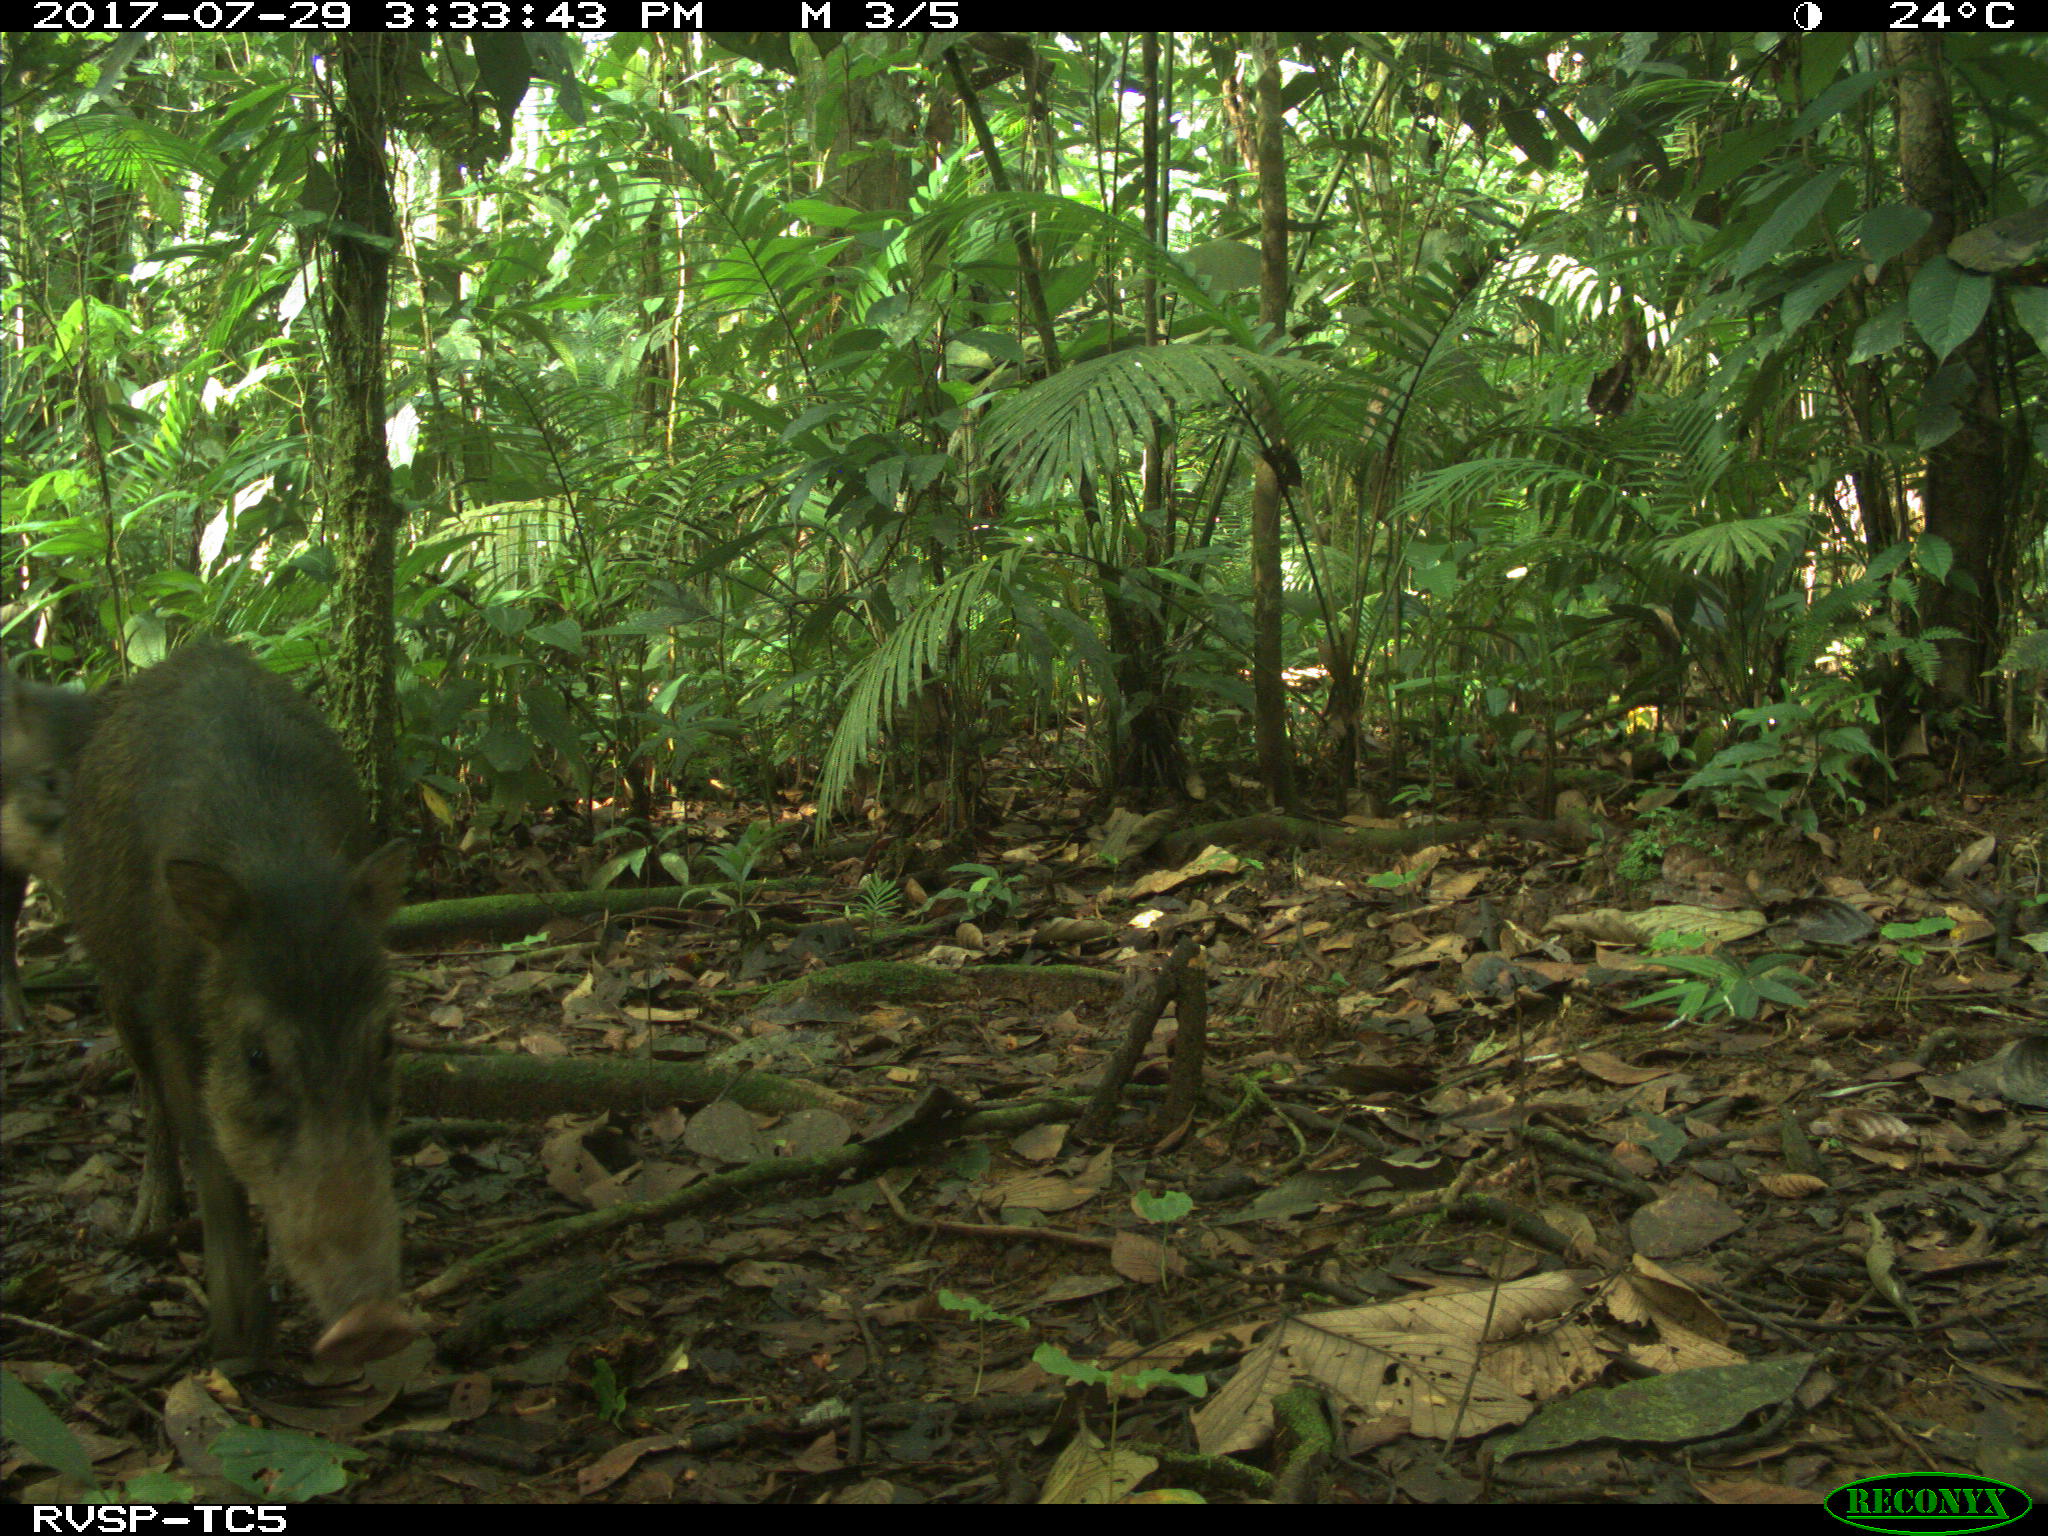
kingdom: Animalia
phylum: Chordata
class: Mammalia
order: Artiodactyla
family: Tayassuidae
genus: Tayassu
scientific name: Tayassu pecari
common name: White-lipped peccary
